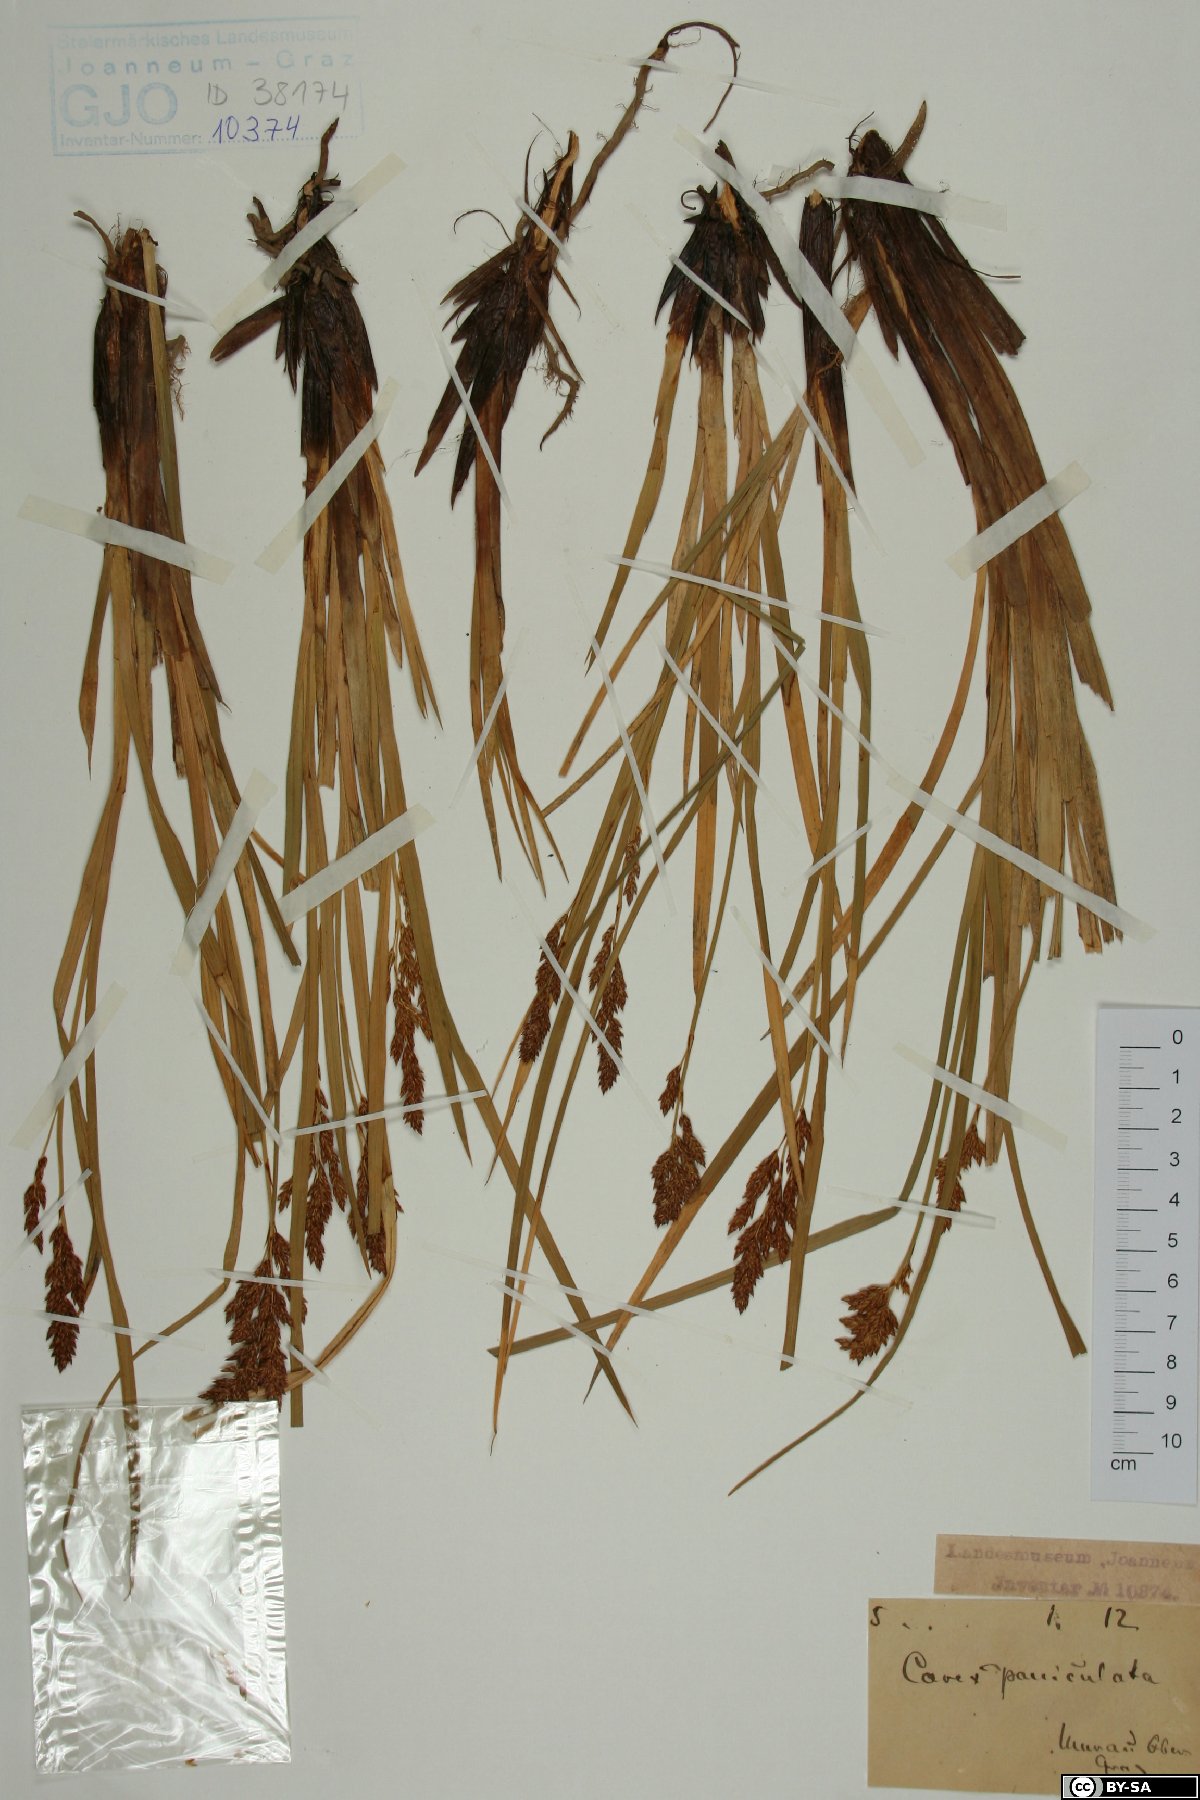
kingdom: Plantae
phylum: Tracheophyta
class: Liliopsida
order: Poales
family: Cyperaceae
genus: Carex
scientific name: Carex paniculata
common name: Greater tussock-sedge
